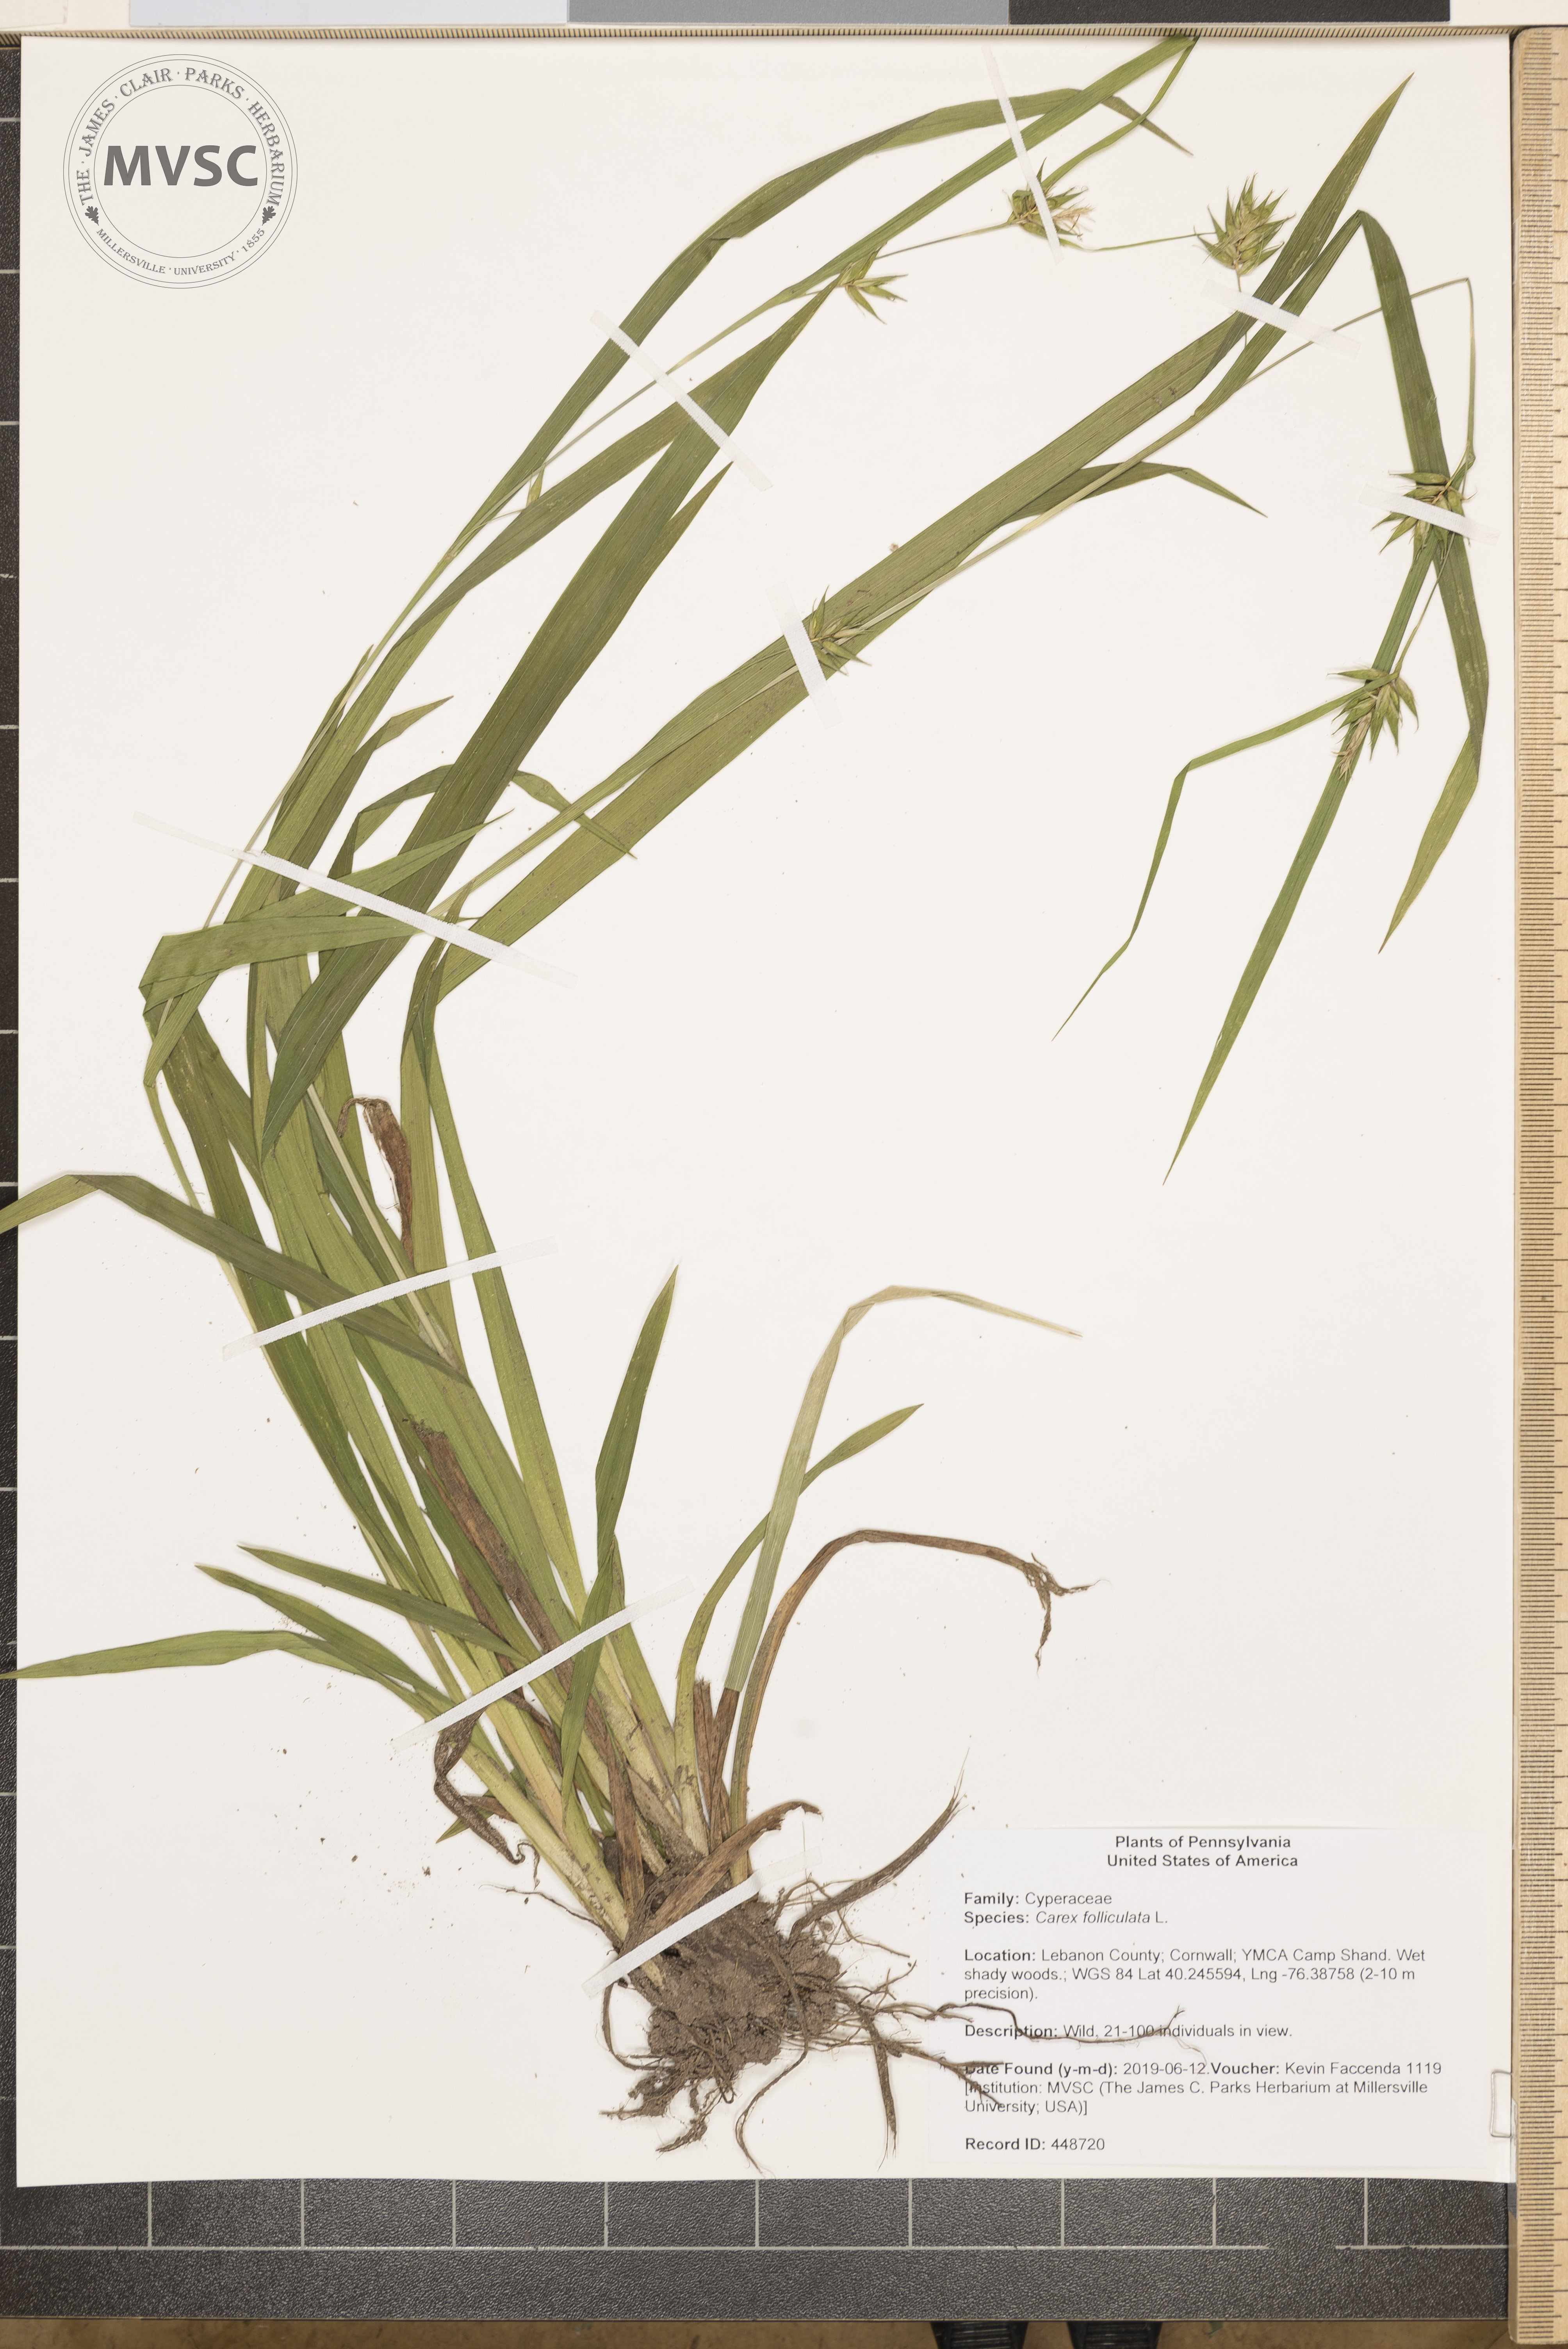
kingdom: Plantae
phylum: Tracheophyta
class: Liliopsida
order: Poales
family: Cyperaceae
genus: Carex
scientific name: Carex folliculata
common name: Northern long sedge
